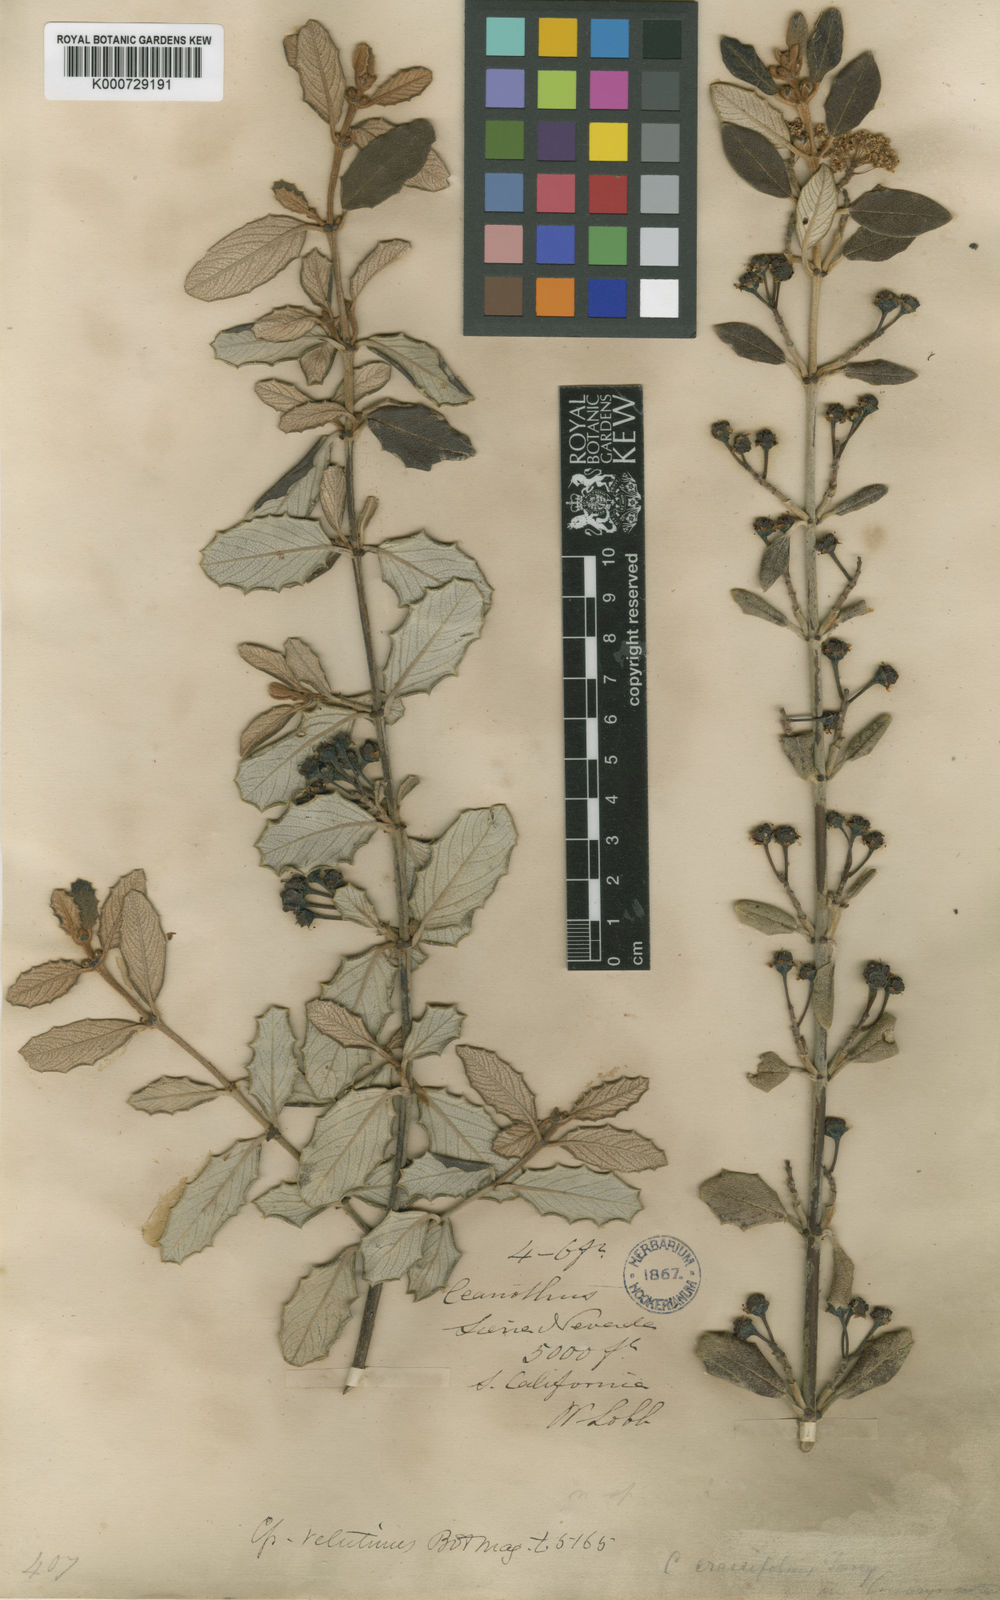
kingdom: Plantae
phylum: Tracheophyta
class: Magnoliopsida
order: Rosales
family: Rhamnaceae
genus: Ceanothus
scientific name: Ceanothus crassifolius
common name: Hoaryleaf ceanothus
